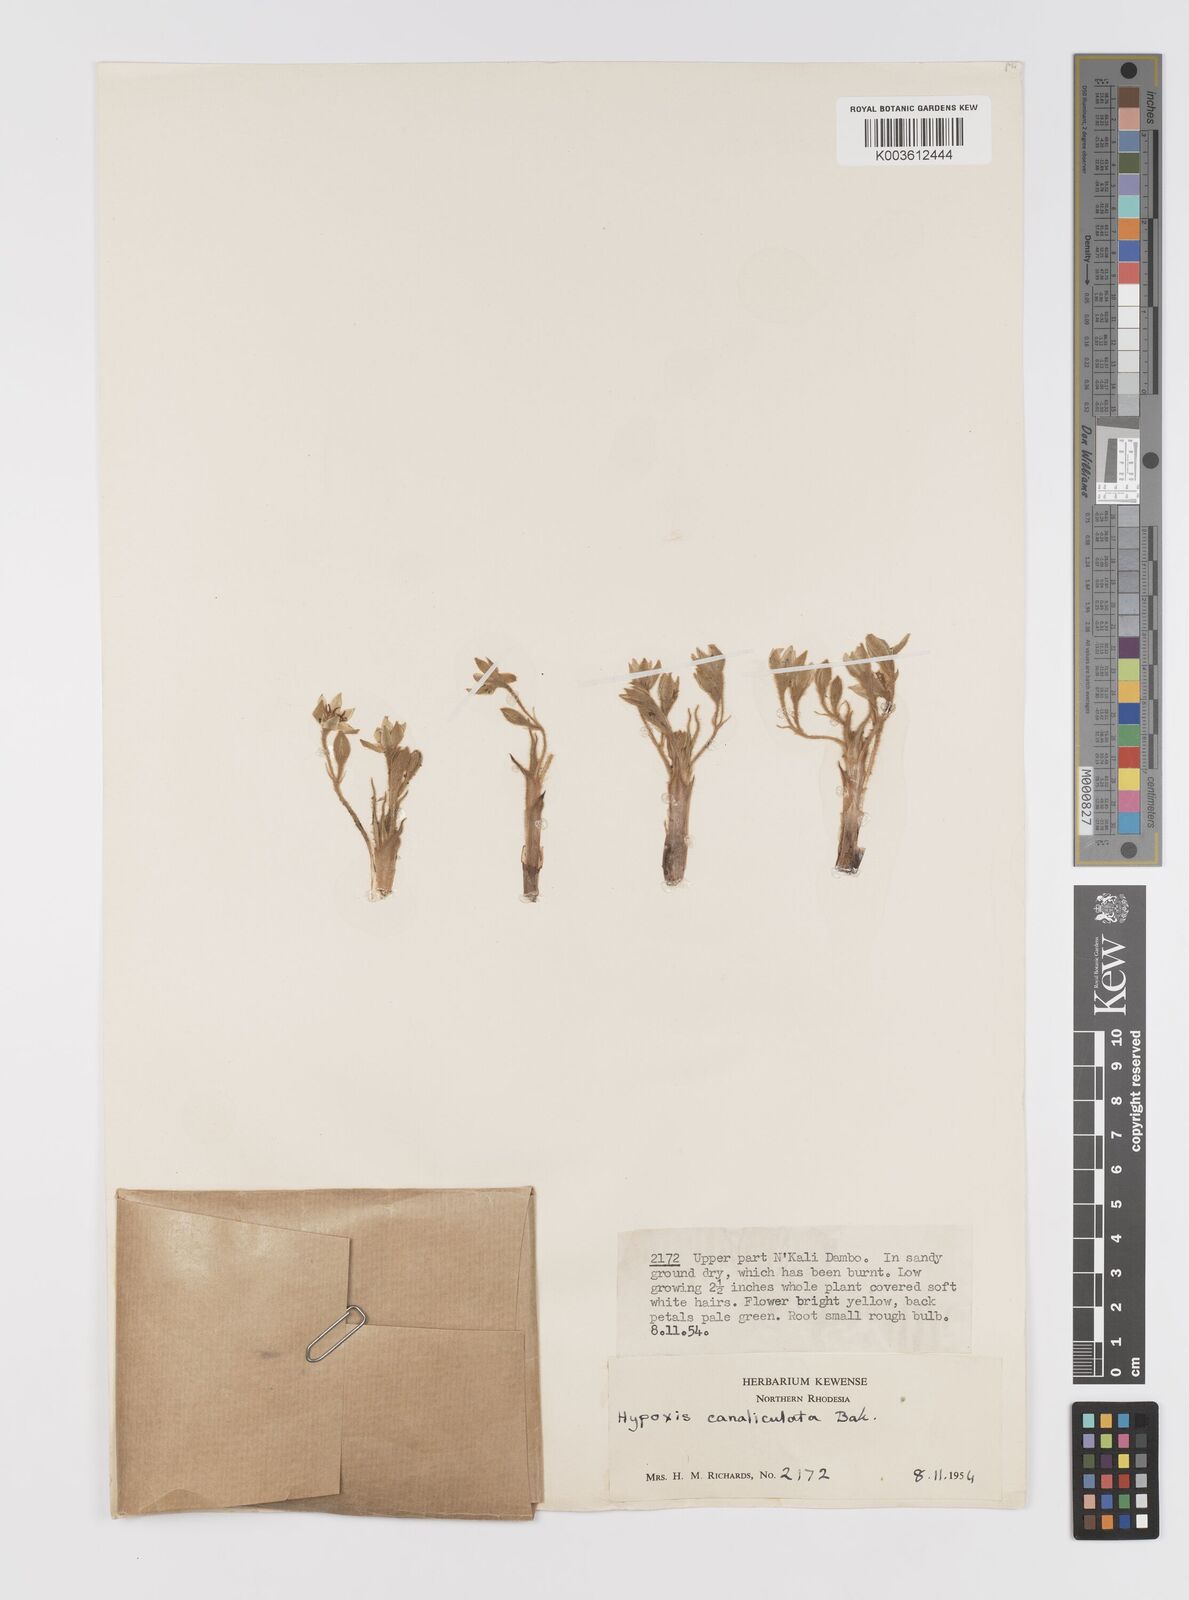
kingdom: Plantae
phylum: Tracheophyta
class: Liliopsida
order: Asparagales
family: Hypoxidaceae
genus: Hypoxis
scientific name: Hypoxis nyasica
